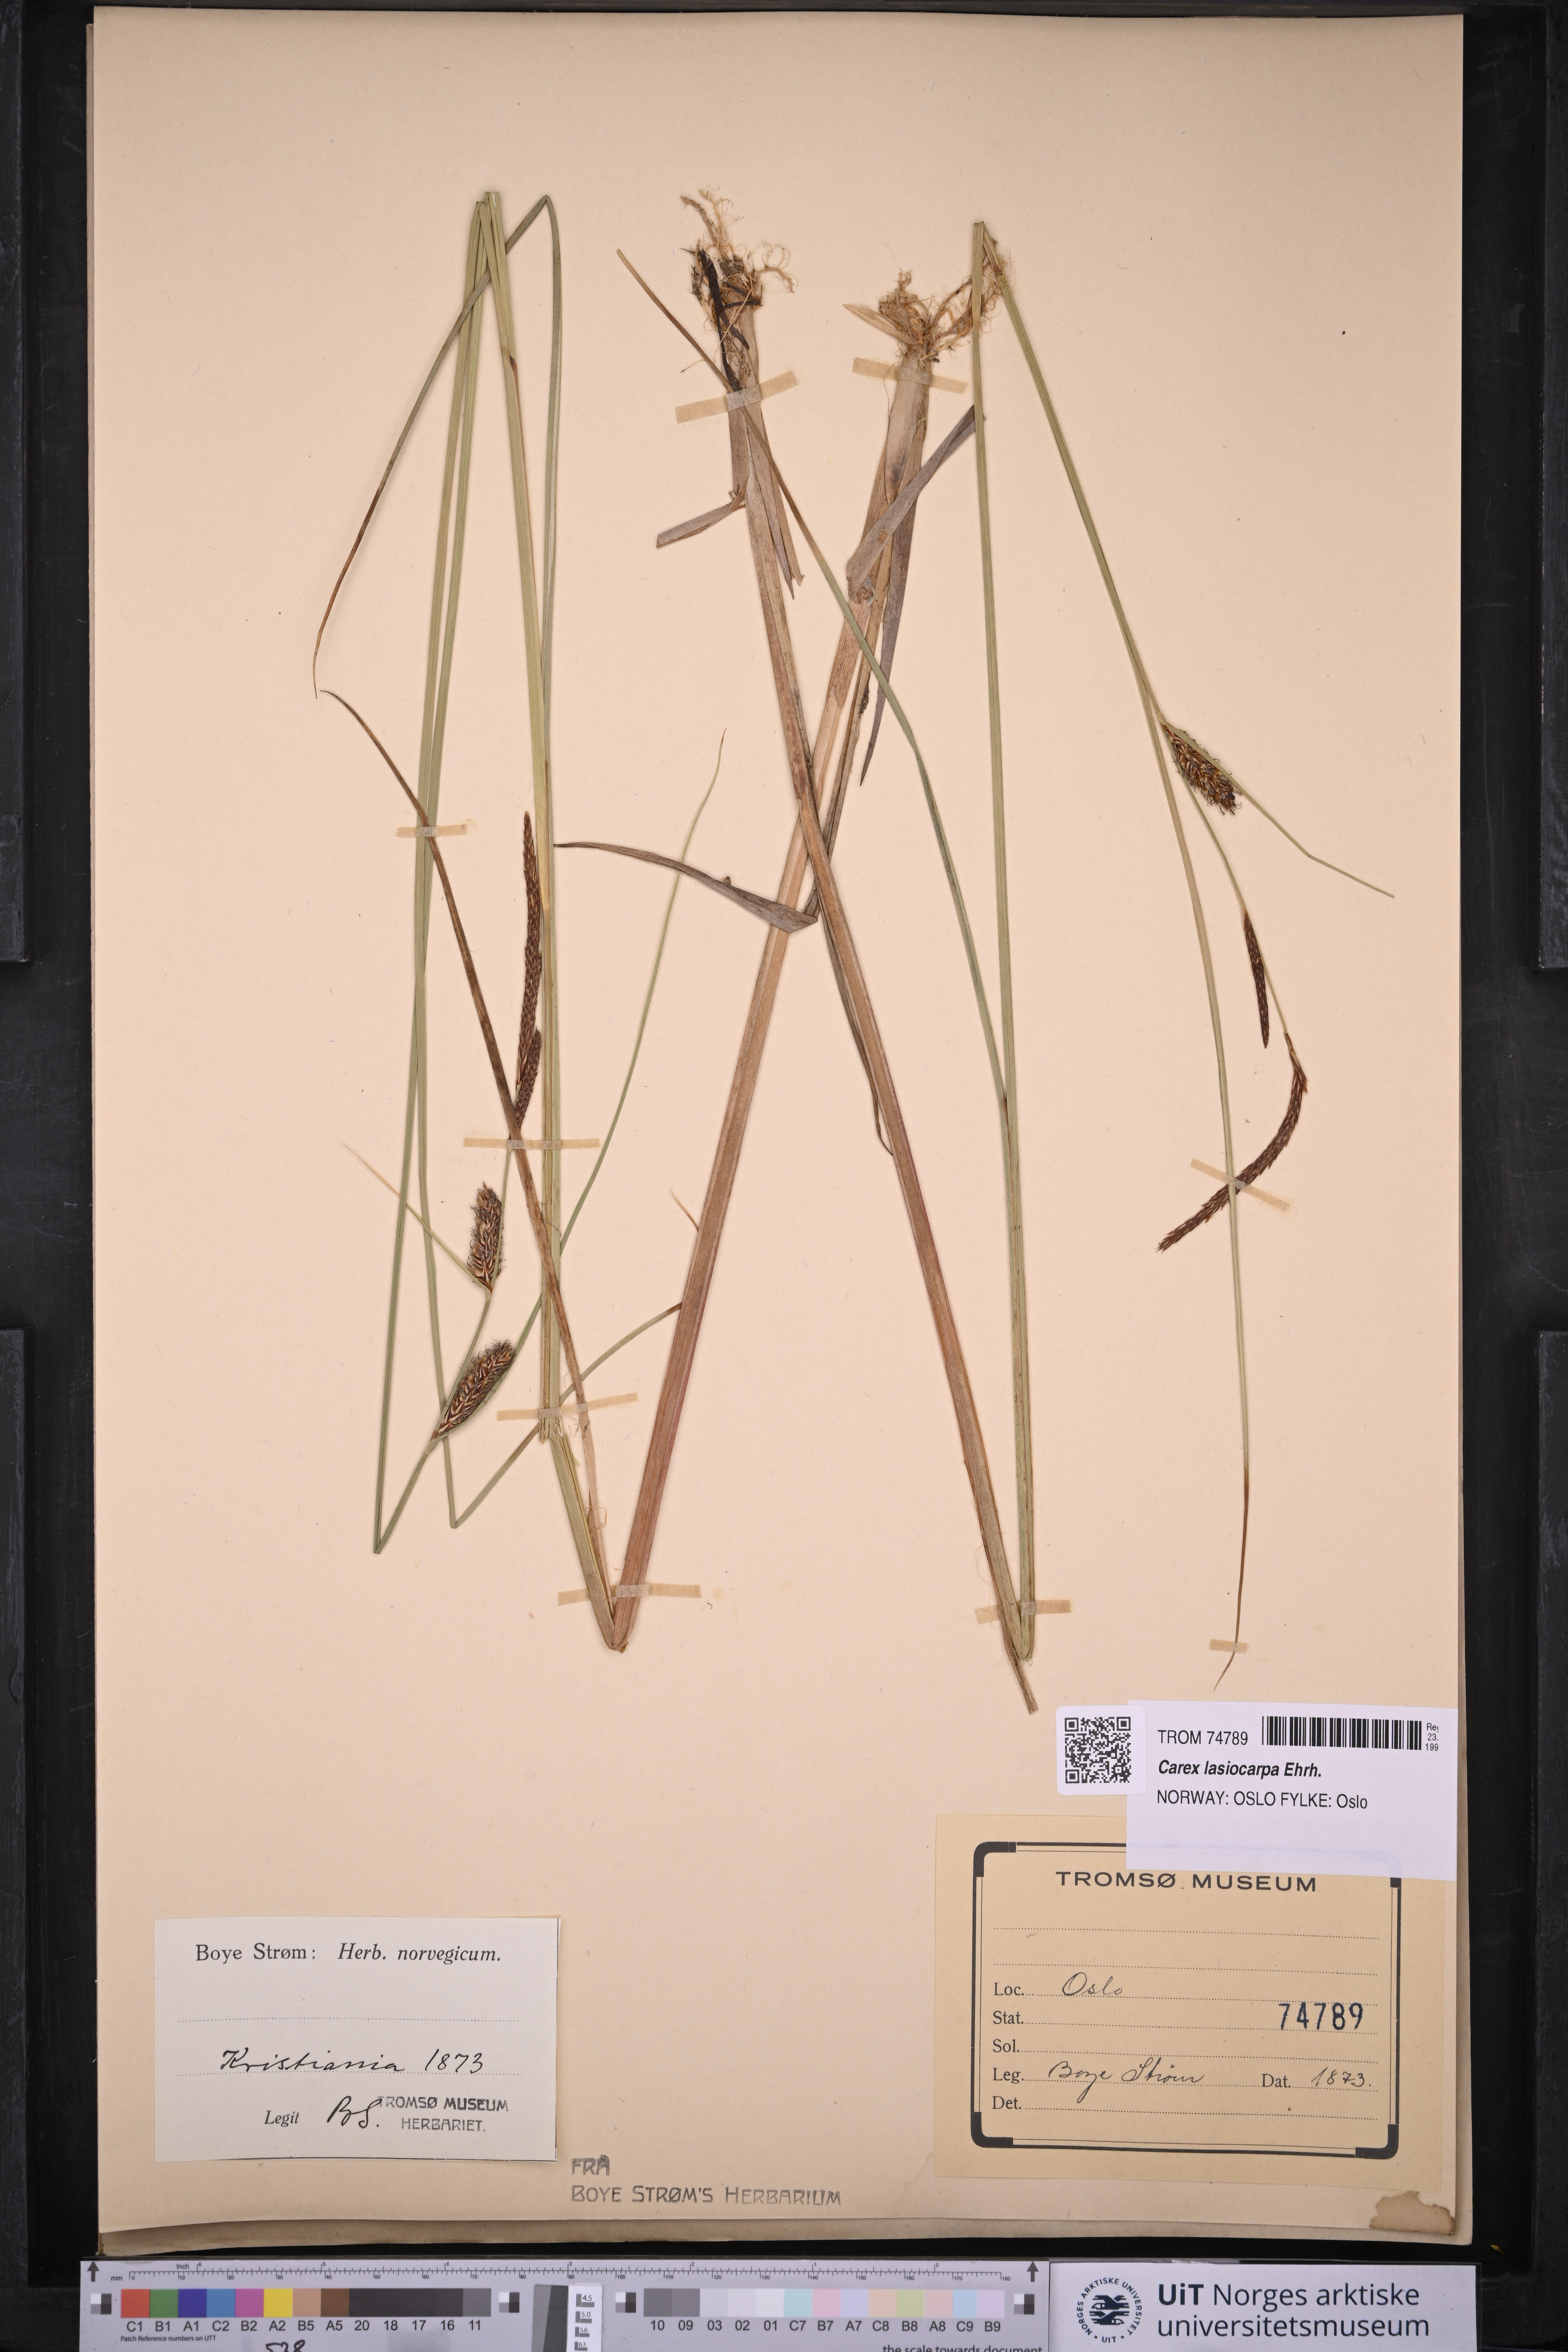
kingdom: Plantae
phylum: Tracheophyta
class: Liliopsida
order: Poales
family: Cyperaceae
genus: Carex
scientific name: Carex lasiocarpa
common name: Slender sedge
